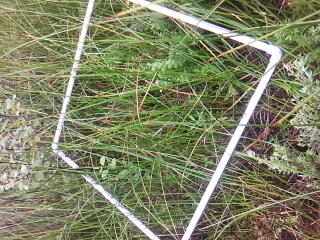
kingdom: Plantae
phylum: Tracheophyta
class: Magnoliopsida
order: Gentianales
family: Apocynaceae
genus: Asclepias
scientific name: Asclepias incarnata
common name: Swamp milkweed
